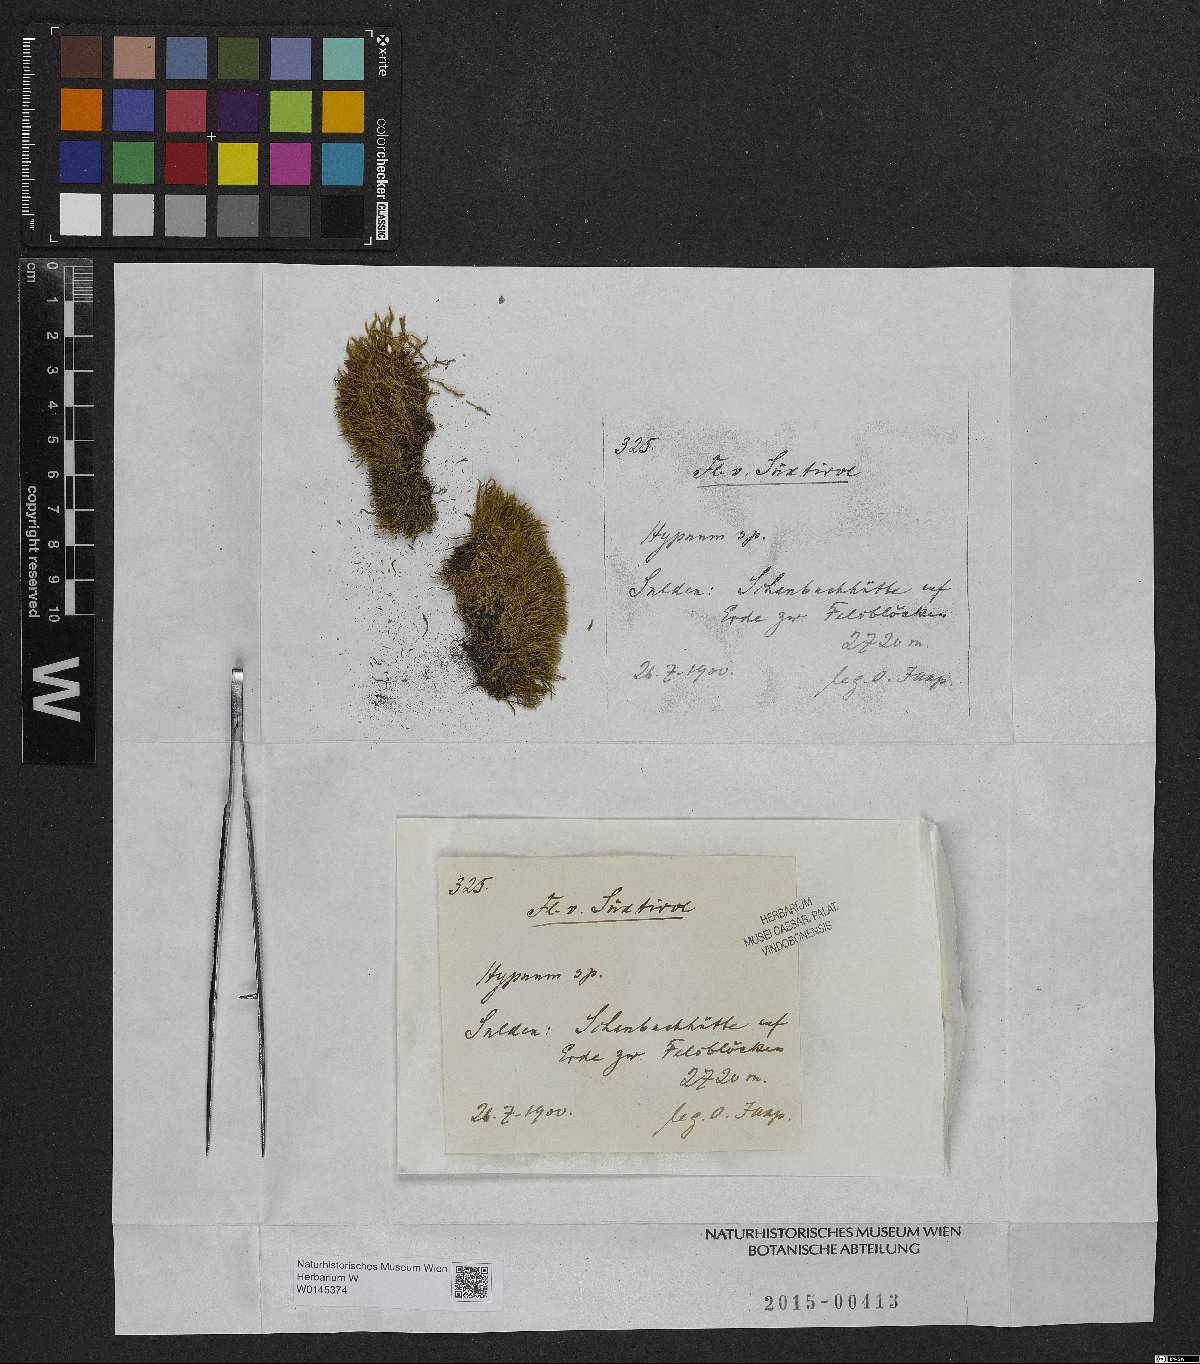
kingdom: Plantae
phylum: Bryophyta
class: Bryopsida
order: Hypnales
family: Hypnaceae
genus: Hypnum
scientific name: Hypnum
